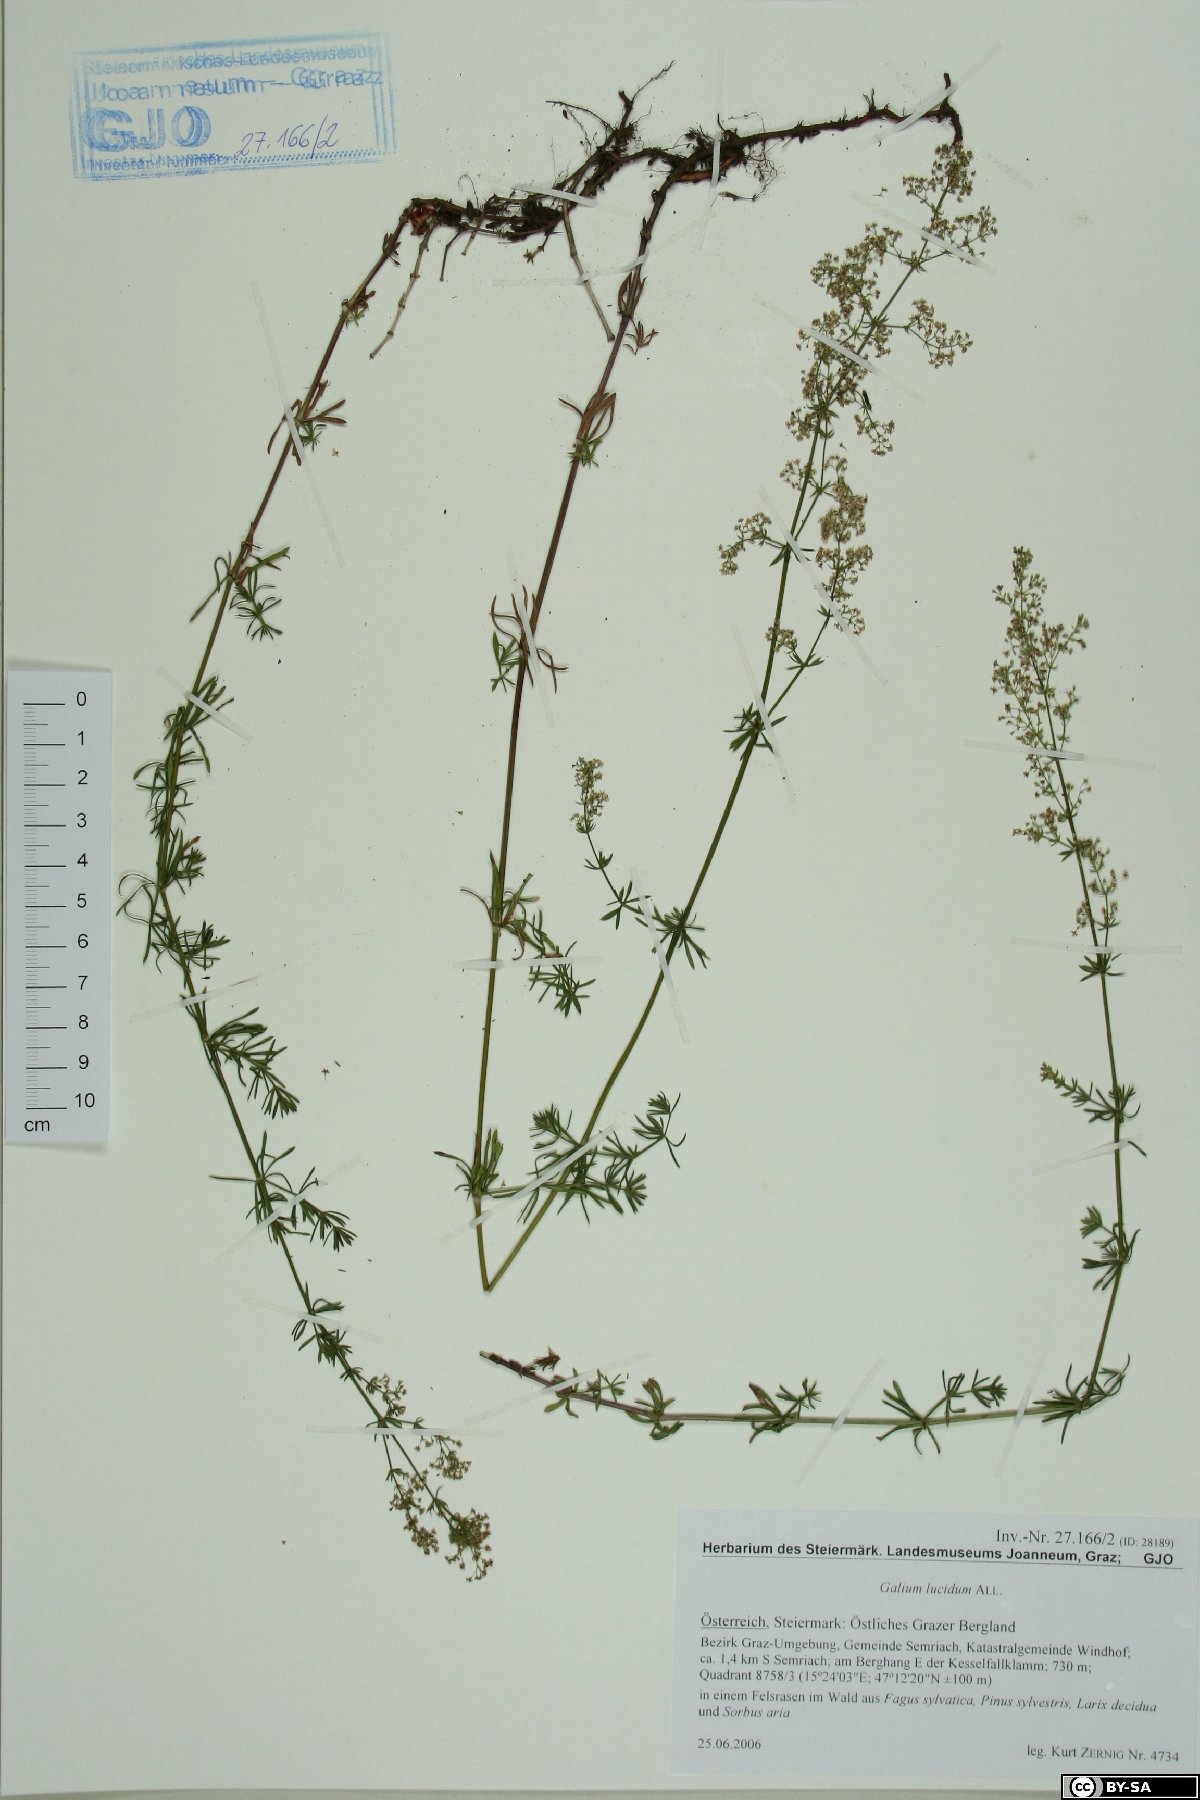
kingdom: Plantae
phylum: Tracheophyta
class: Magnoliopsida
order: Gentianales
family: Rubiaceae
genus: Galium
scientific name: Galium lucidum
